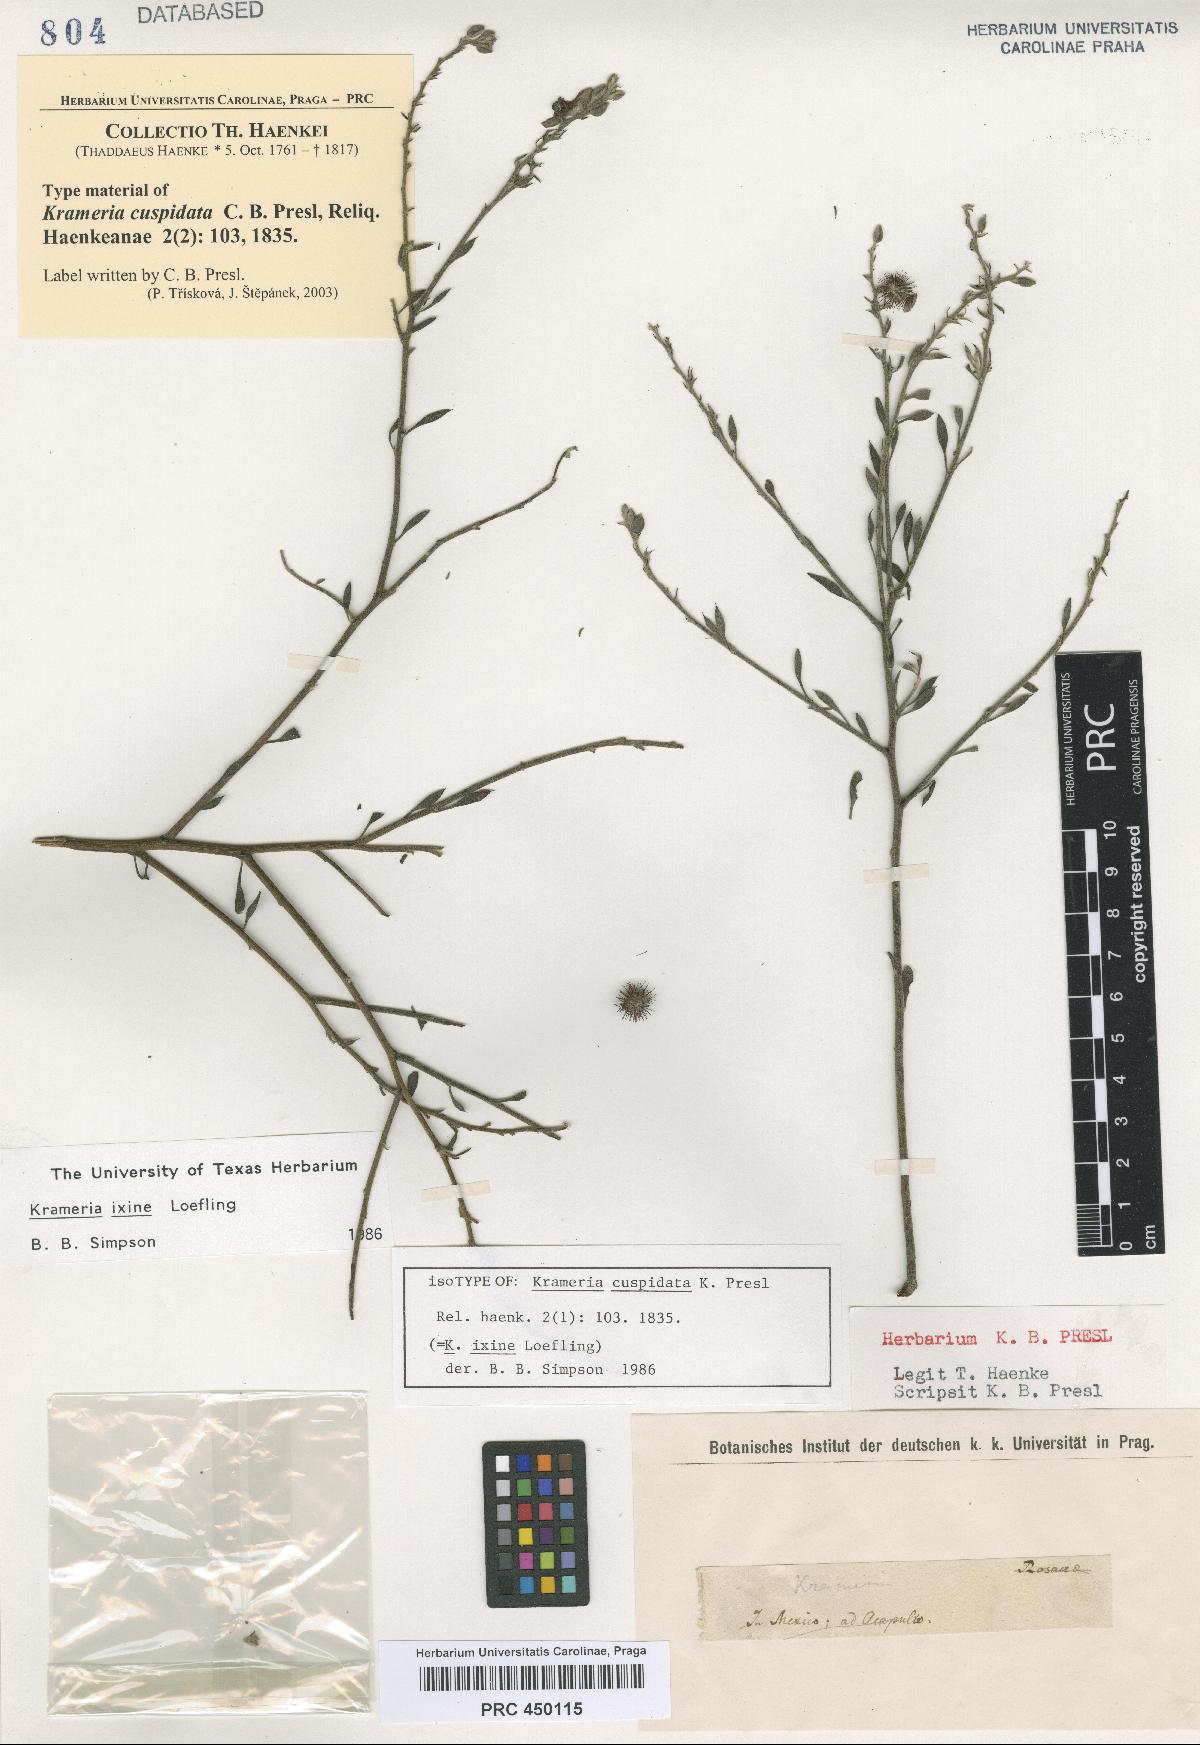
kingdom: Plantae
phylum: Tracheophyta
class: Magnoliopsida
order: Zygophyllales
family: Krameriaceae
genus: Krameria
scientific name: Krameria ixine
